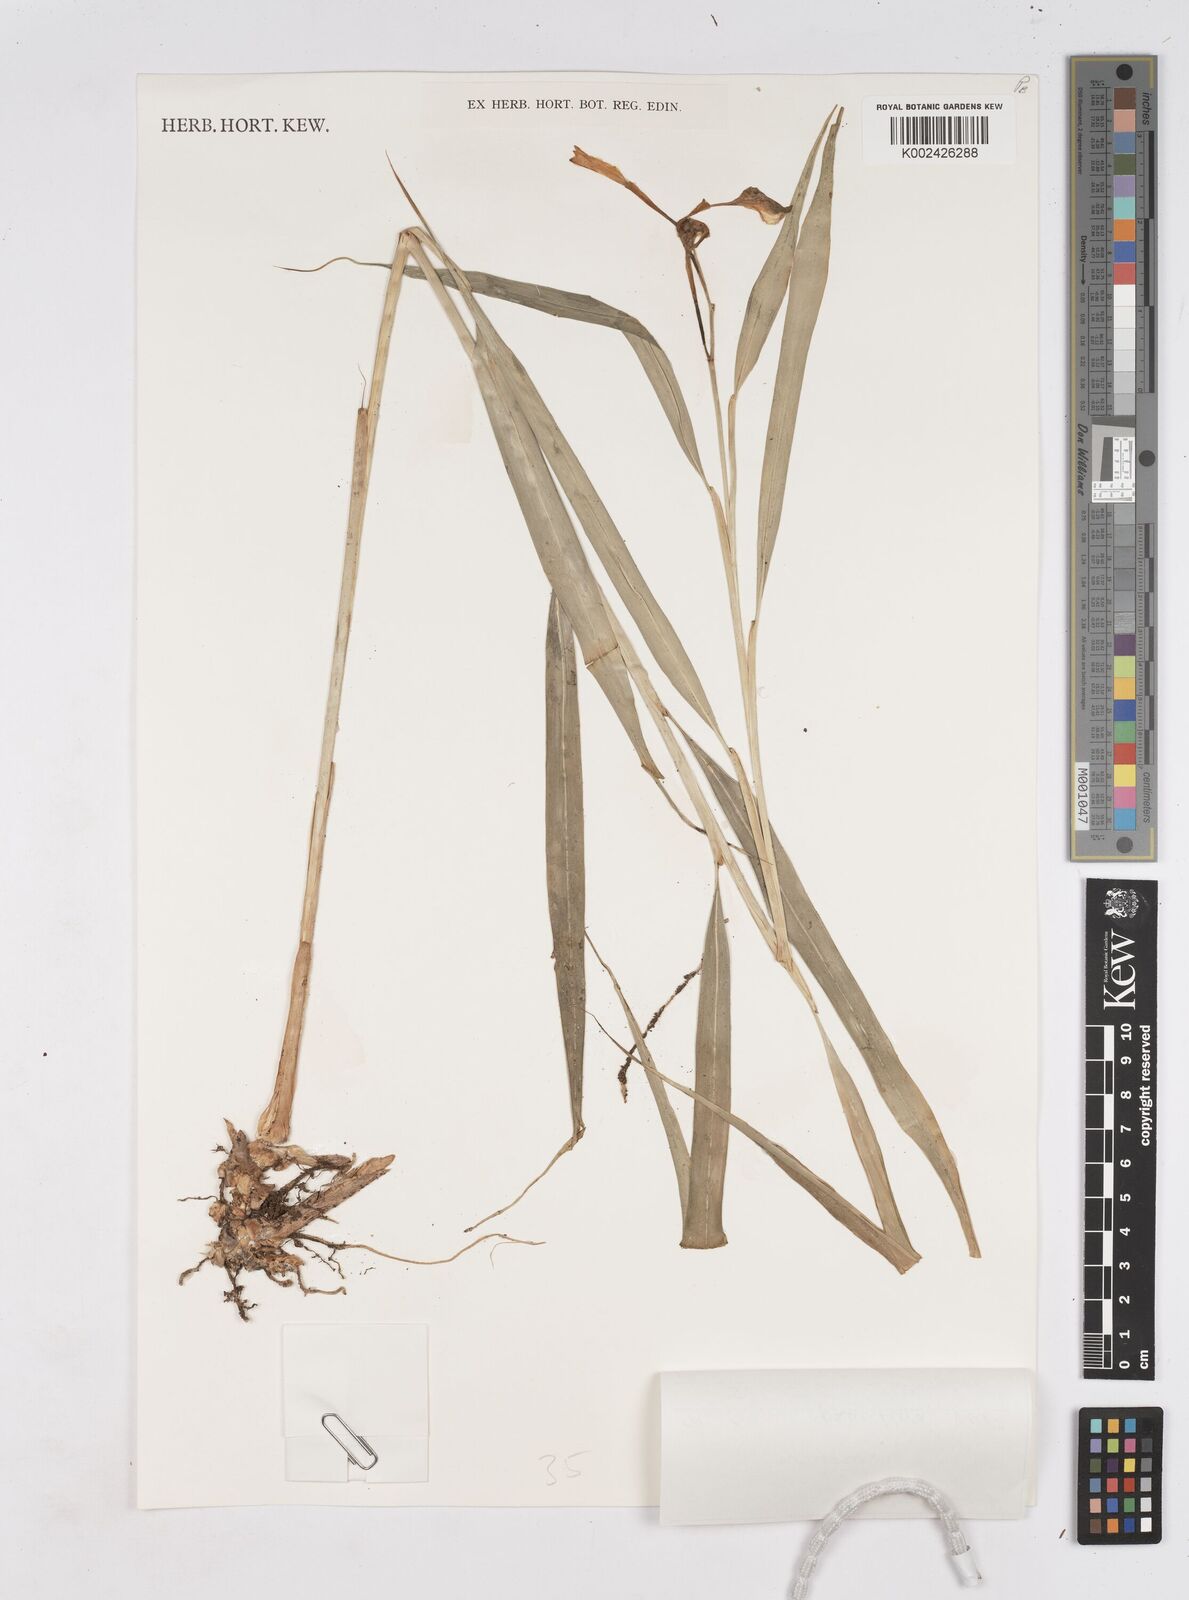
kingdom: Plantae
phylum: Tracheophyta
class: Liliopsida
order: Zingiberales
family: Zingiberaceae
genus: Burbidgea
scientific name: Burbidgea pauciflora
